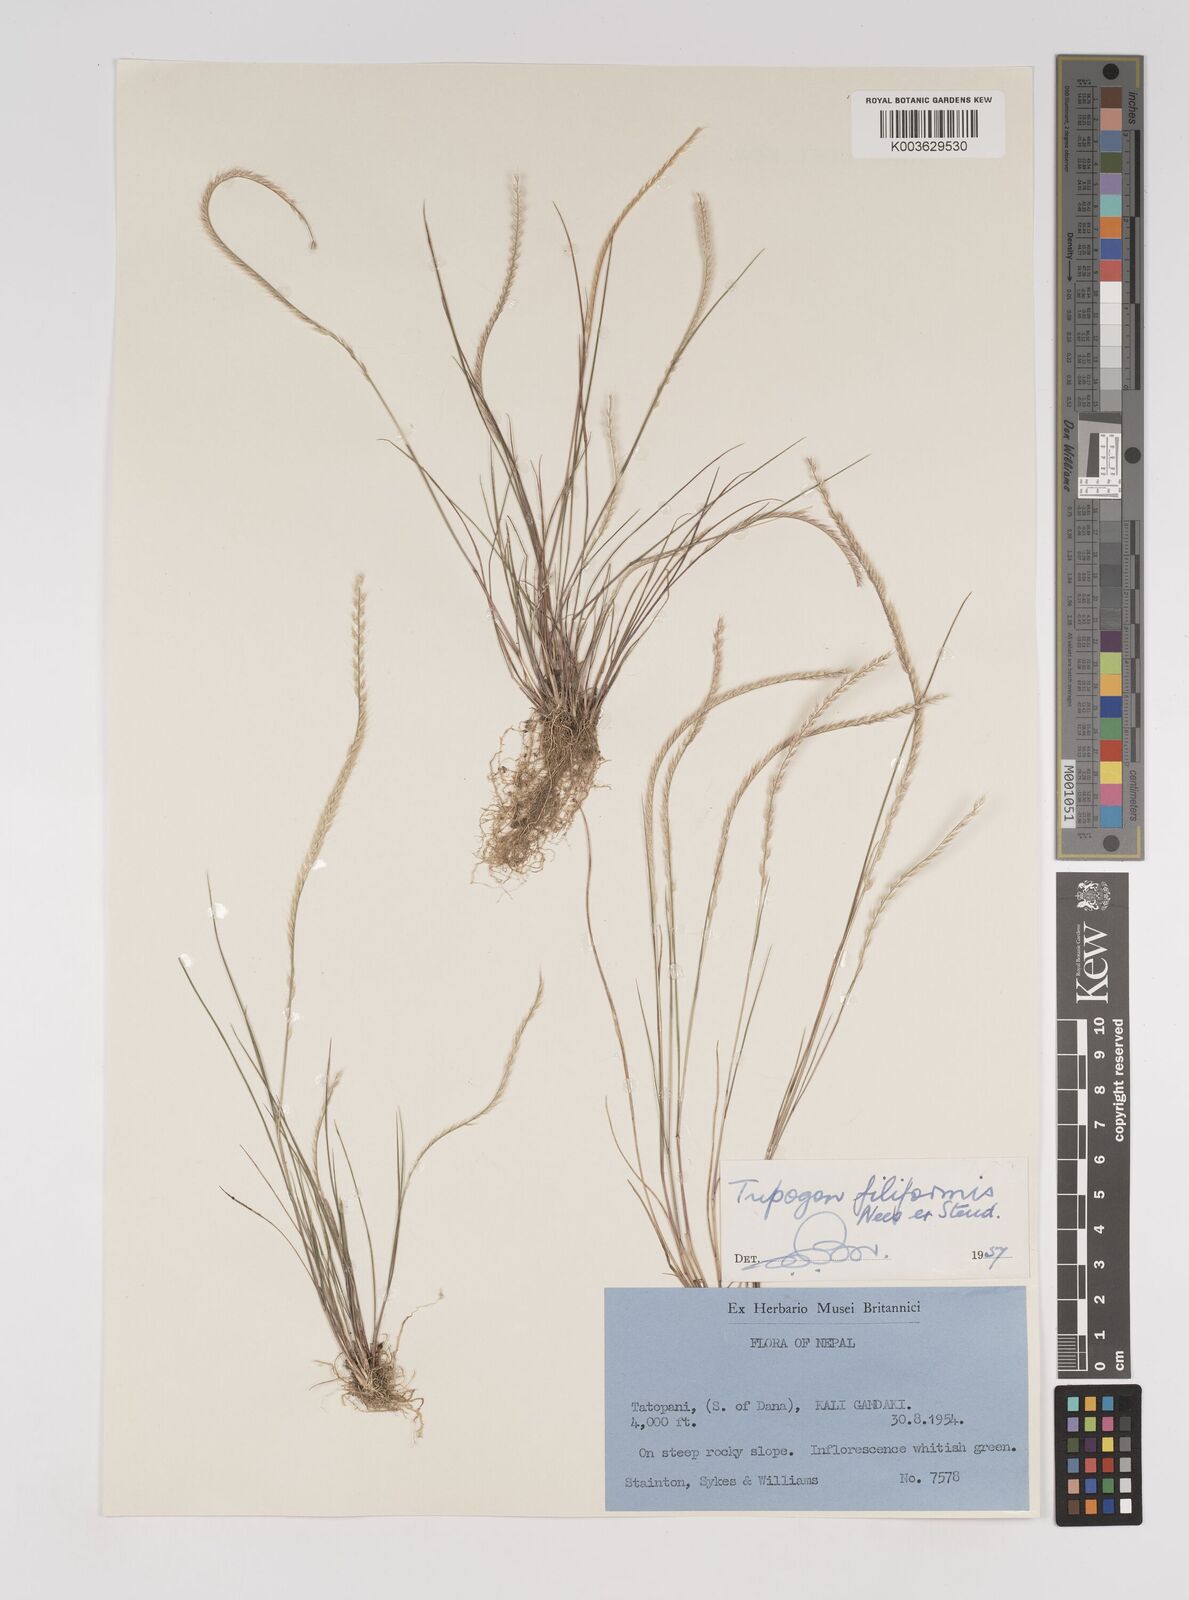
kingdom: Plantae
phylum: Tracheophyta
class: Liliopsida
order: Poales
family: Poaceae
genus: Tripogon
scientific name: Tripogon filiformis
